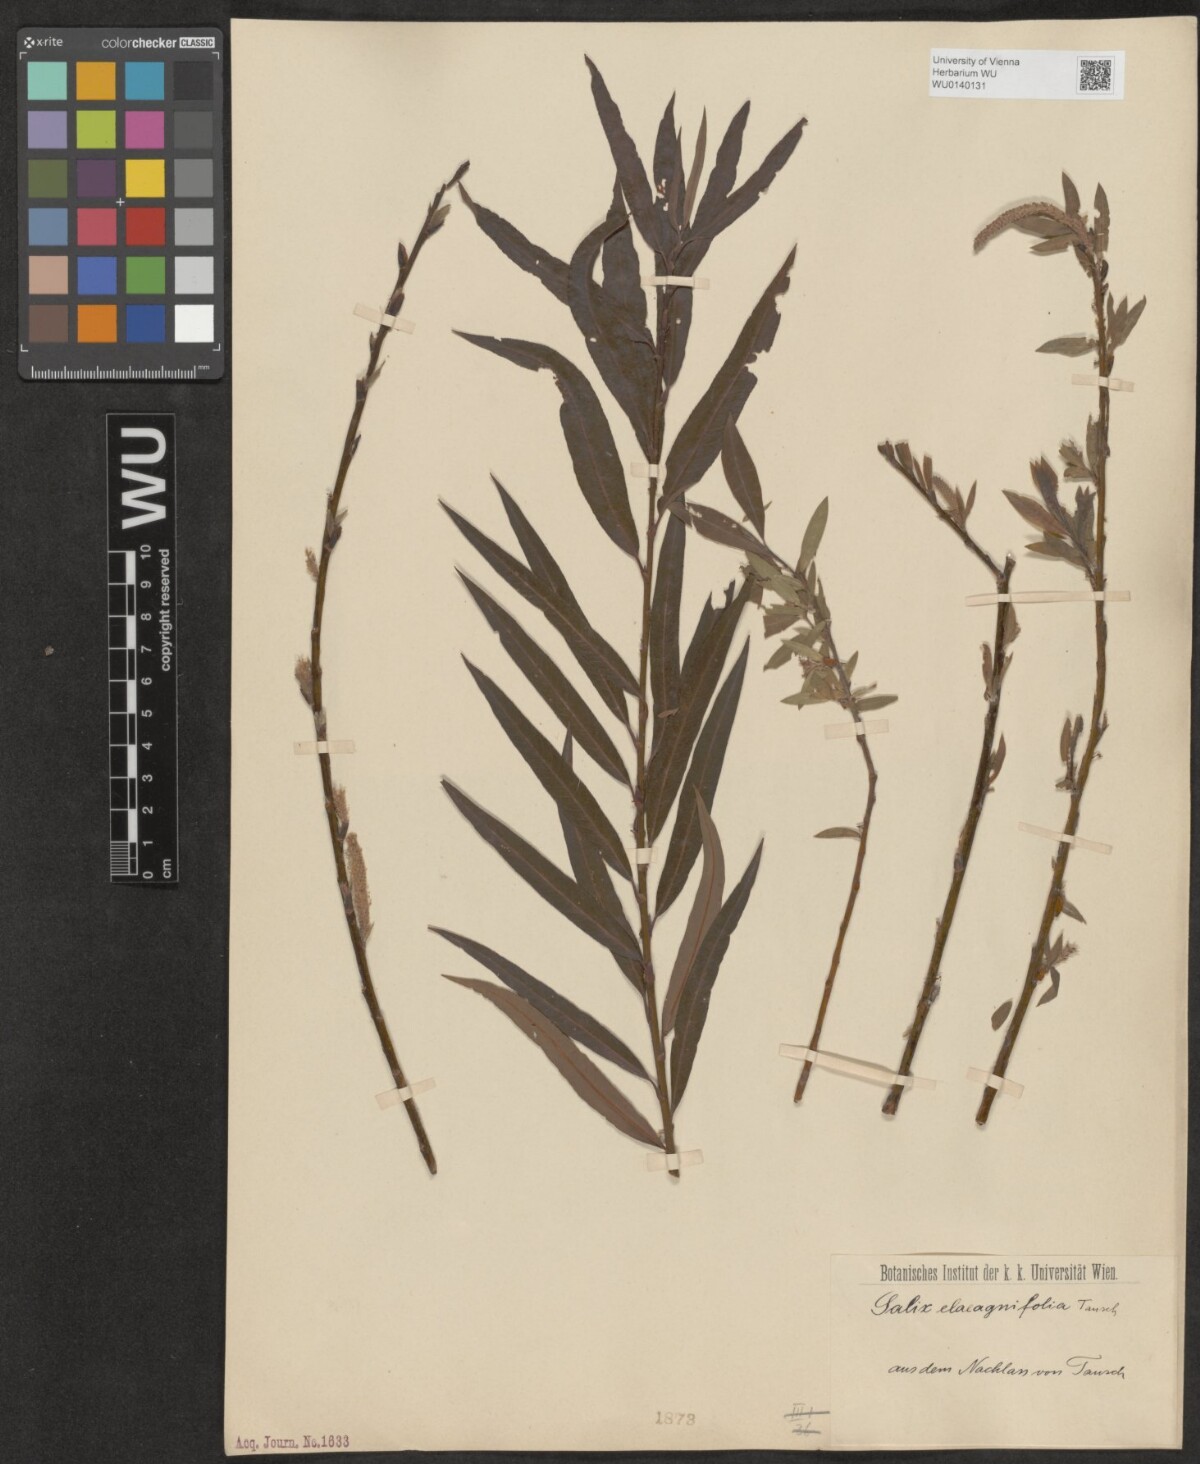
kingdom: Plantae
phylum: Tracheophyta
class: Magnoliopsida
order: Malpighiales
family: Salicaceae
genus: Salix
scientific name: Salix mollissima
